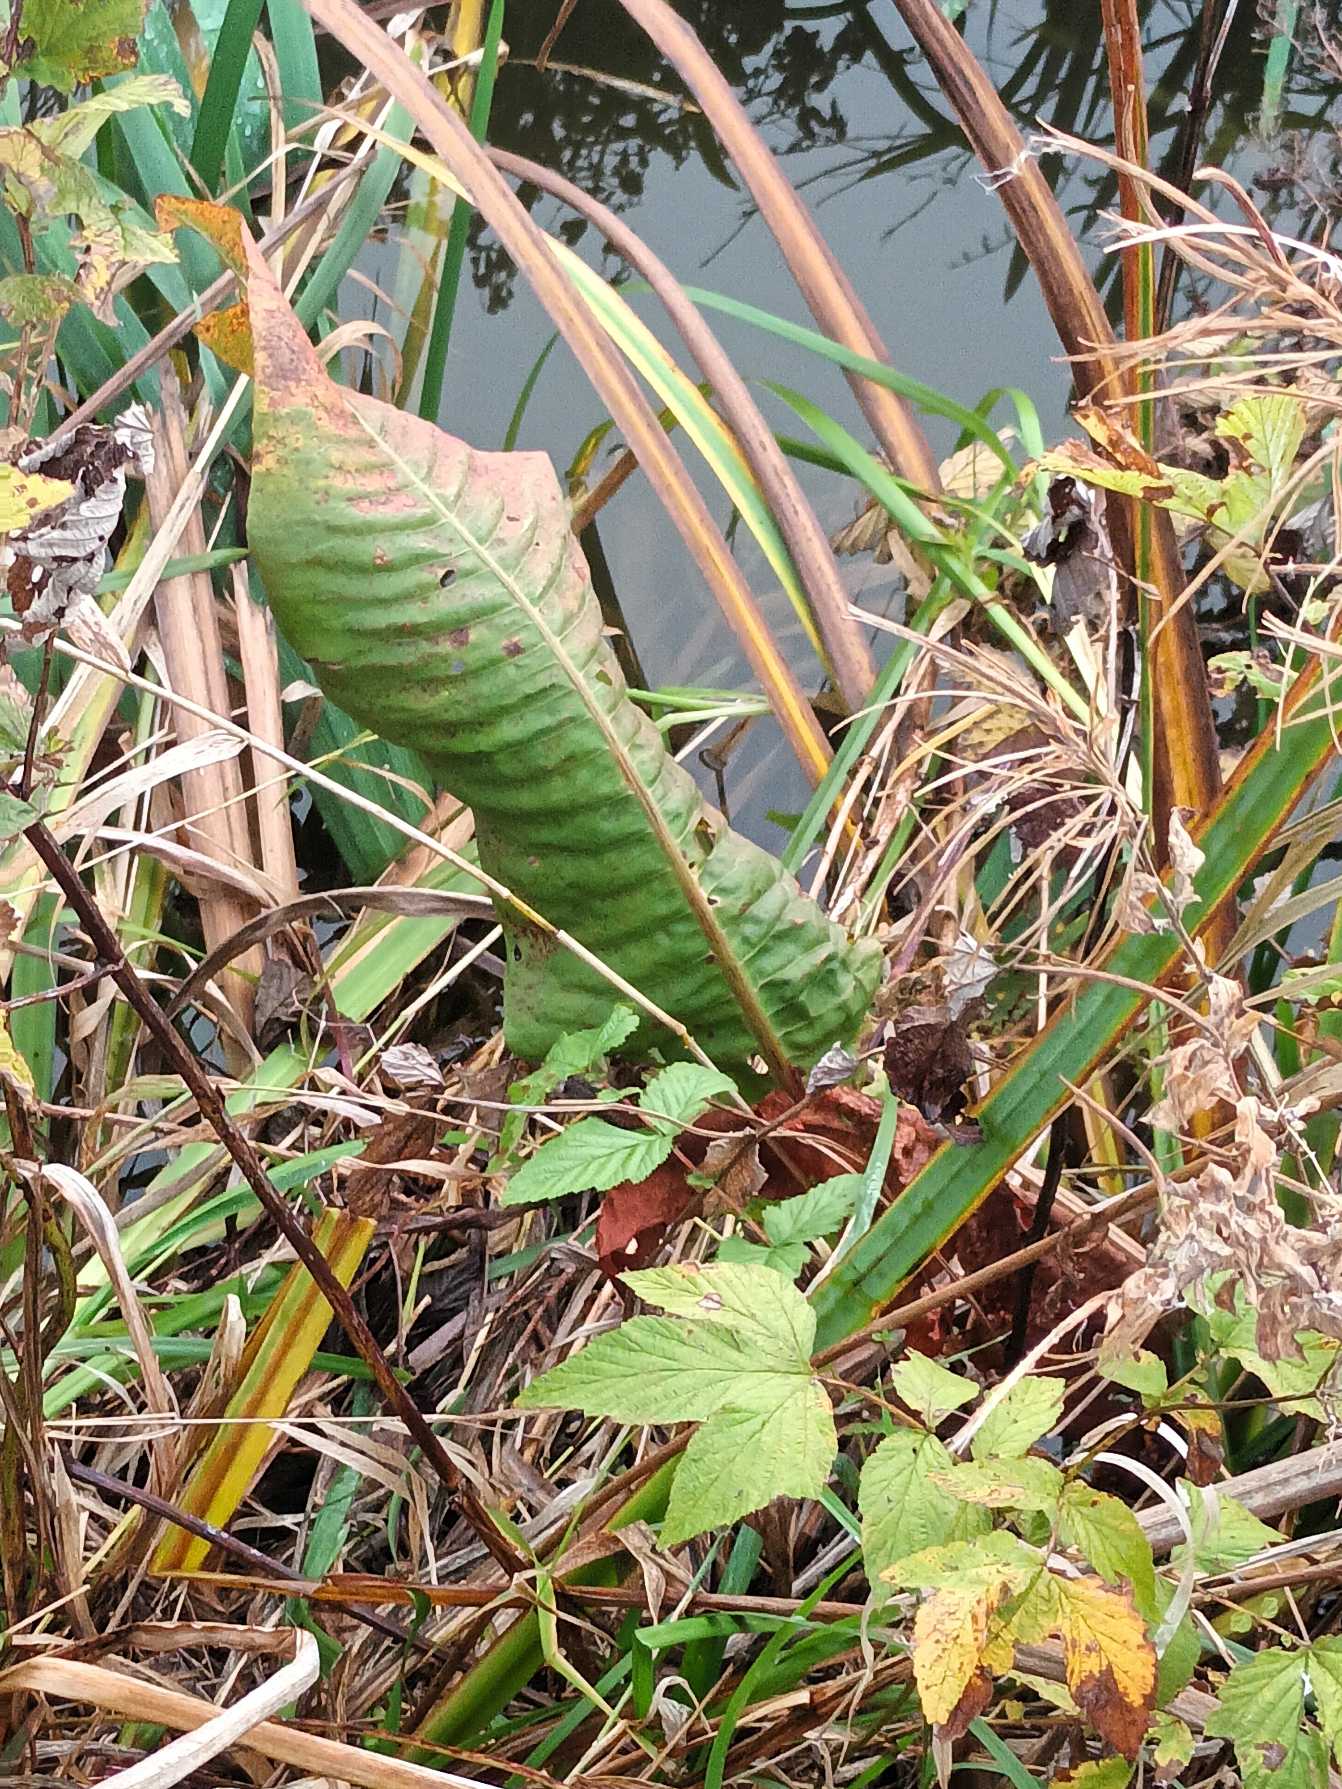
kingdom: Plantae
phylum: Tracheophyta
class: Magnoliopsida
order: Caryophyllales
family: Polygonaceae
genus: Rumex
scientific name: Rumex hydrolapathum
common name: Vand-skræppe
